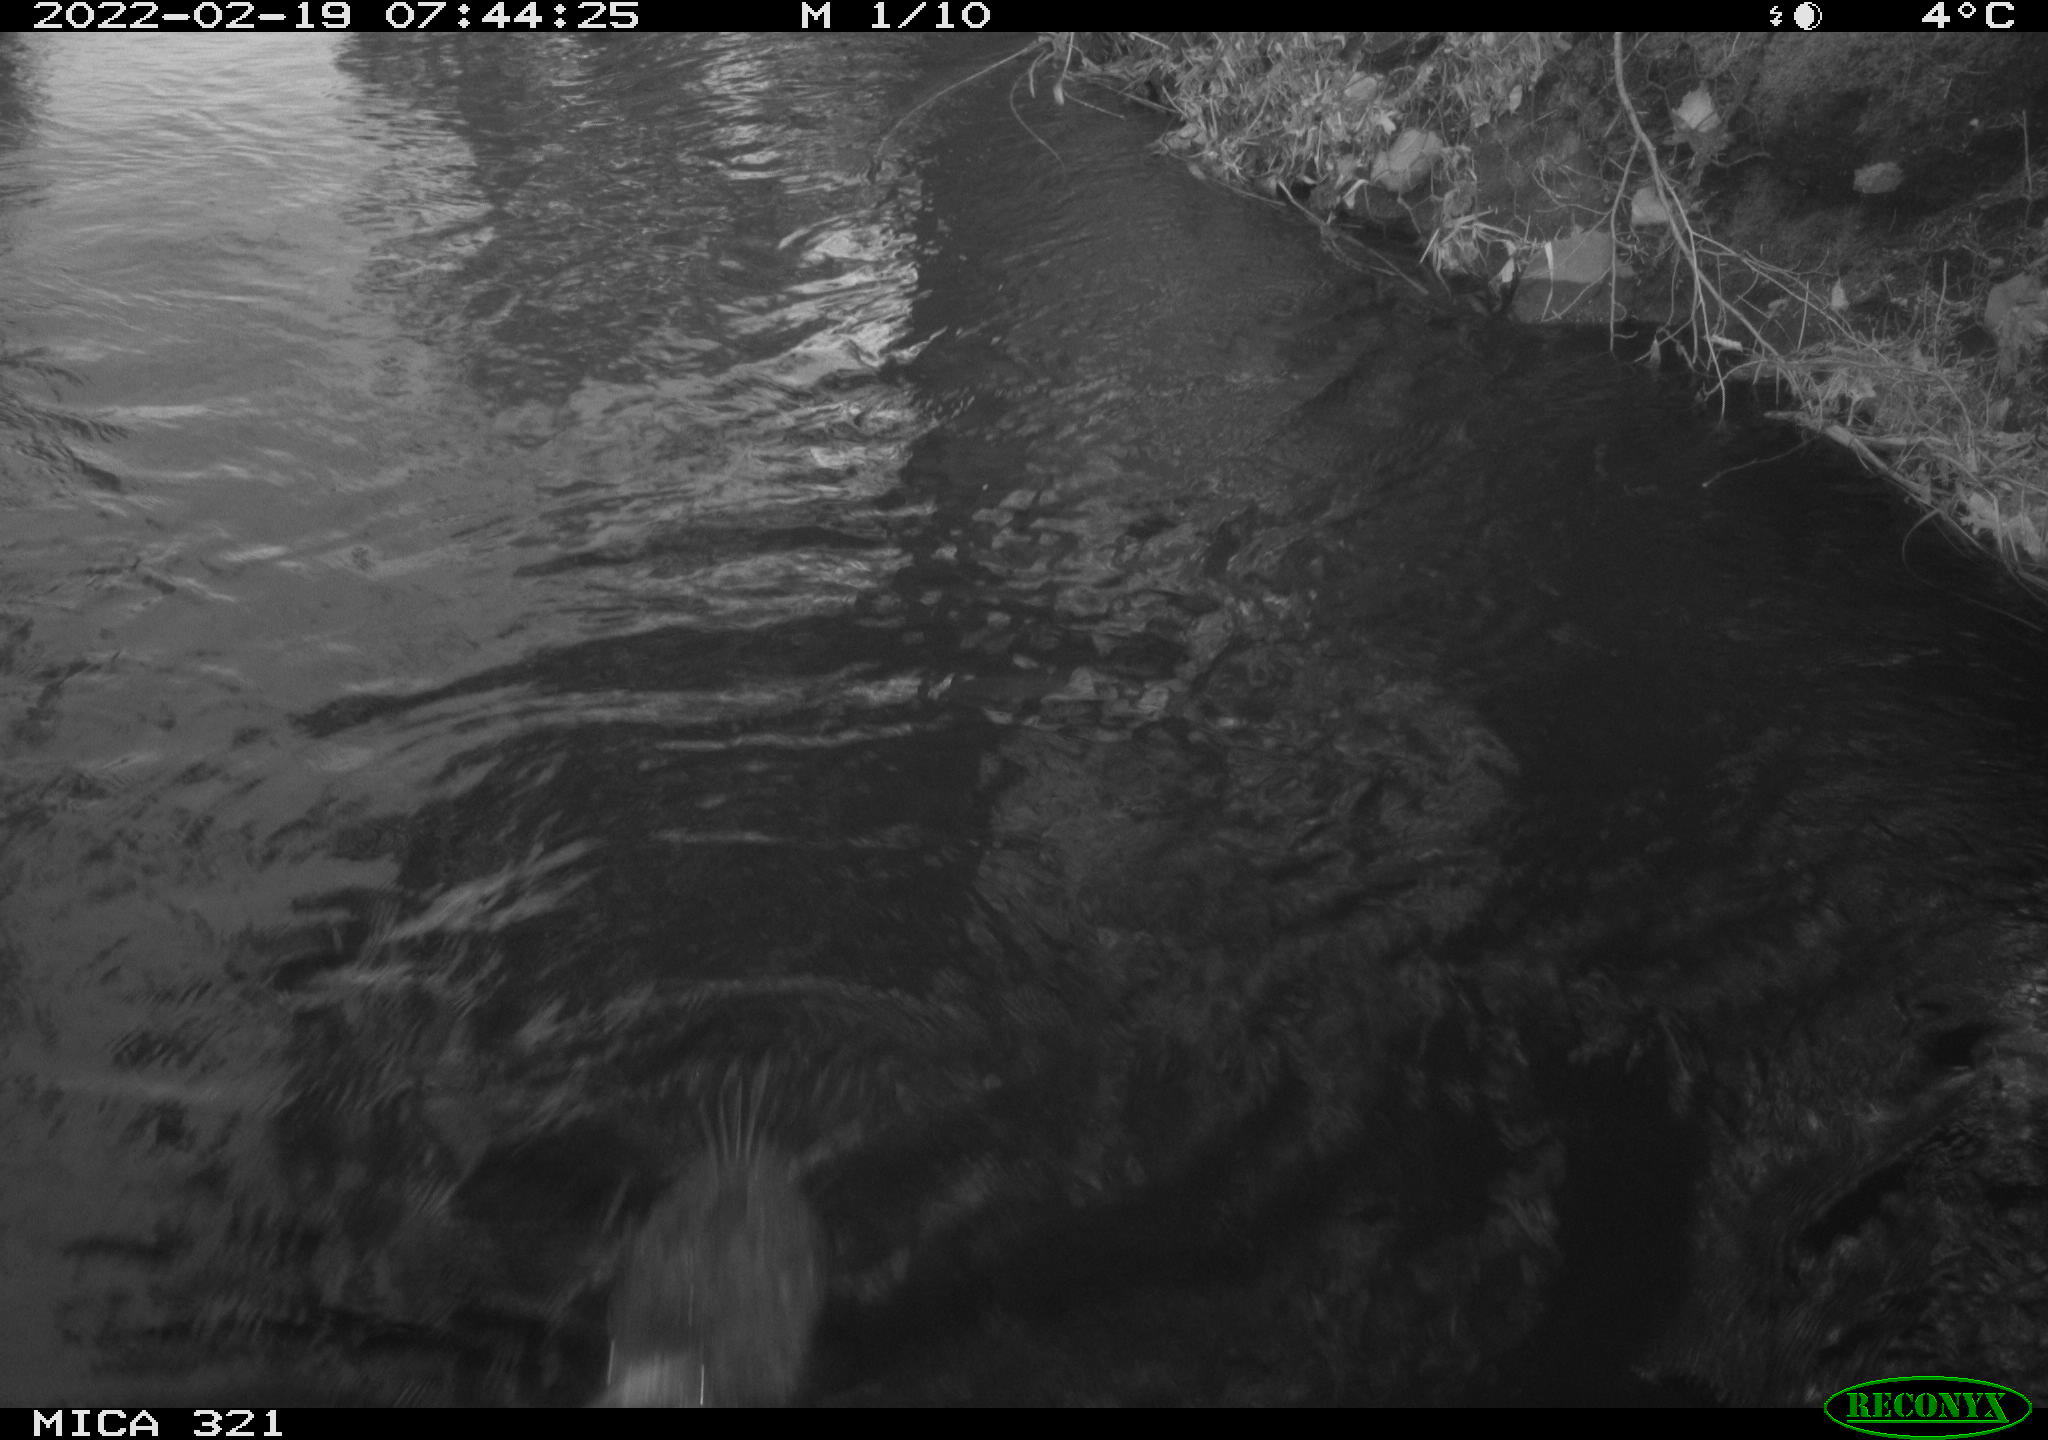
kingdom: Animalia
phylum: Chordata
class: Aves
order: Anseriformes
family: Anatidae
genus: Anas
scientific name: Anas platyrhynchos
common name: Mallard
